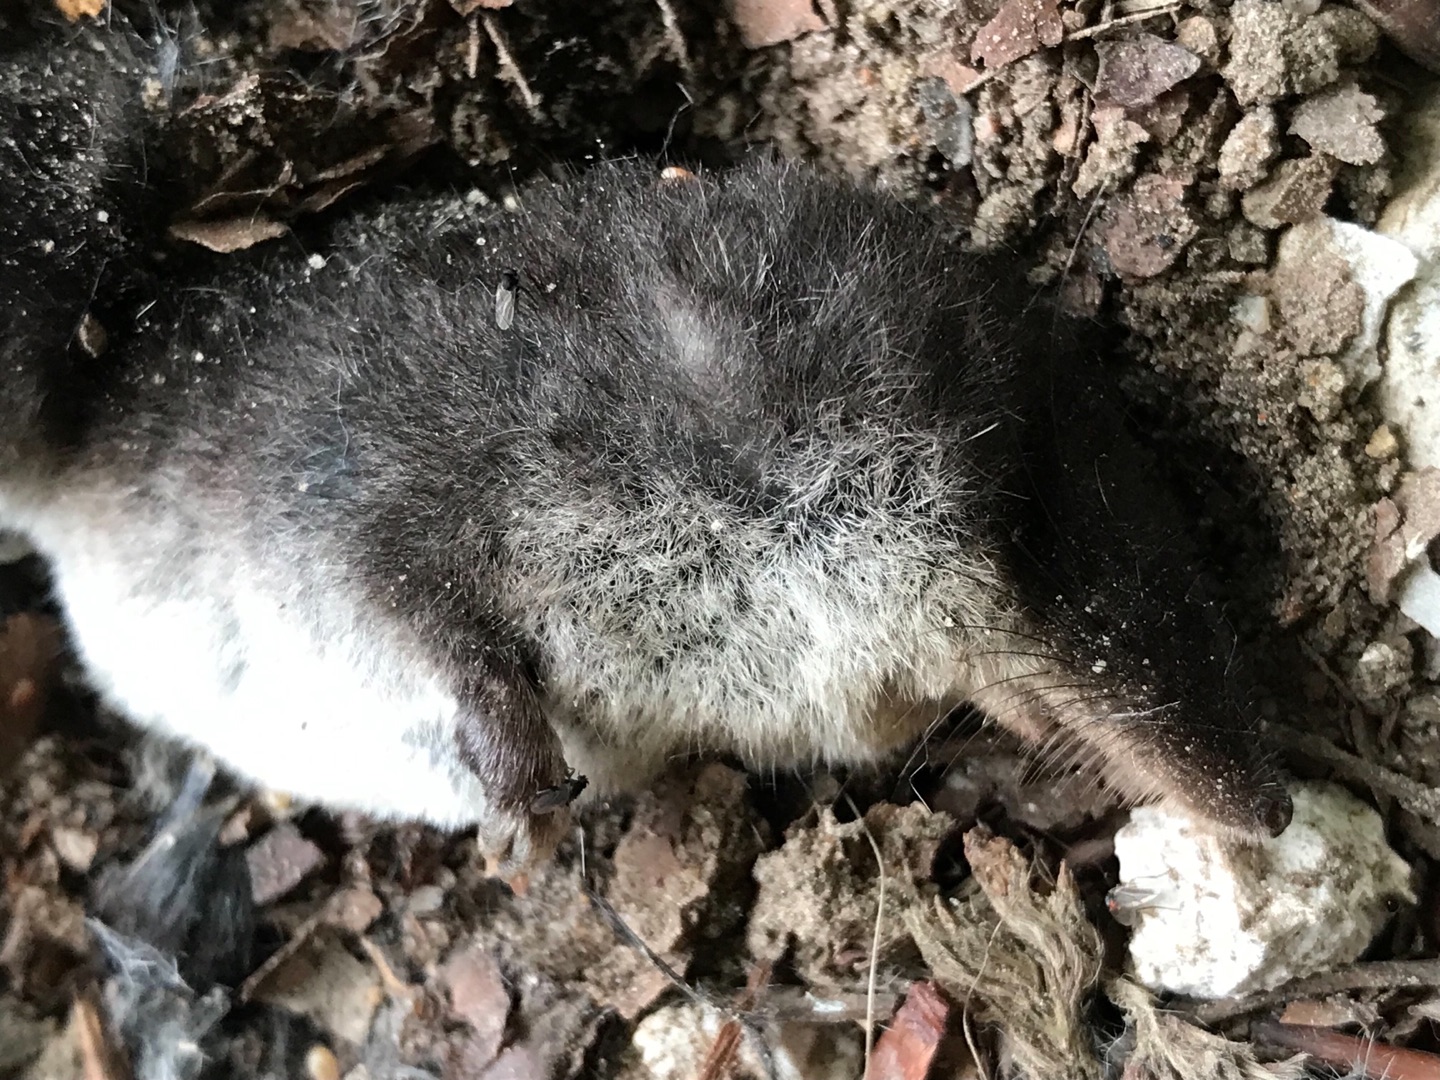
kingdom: Animalia
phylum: Chordata
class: Mammalia
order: Soricomorpha
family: Soricidae
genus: Neomys
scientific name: Neomys fodiens
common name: Vandspidsmus
